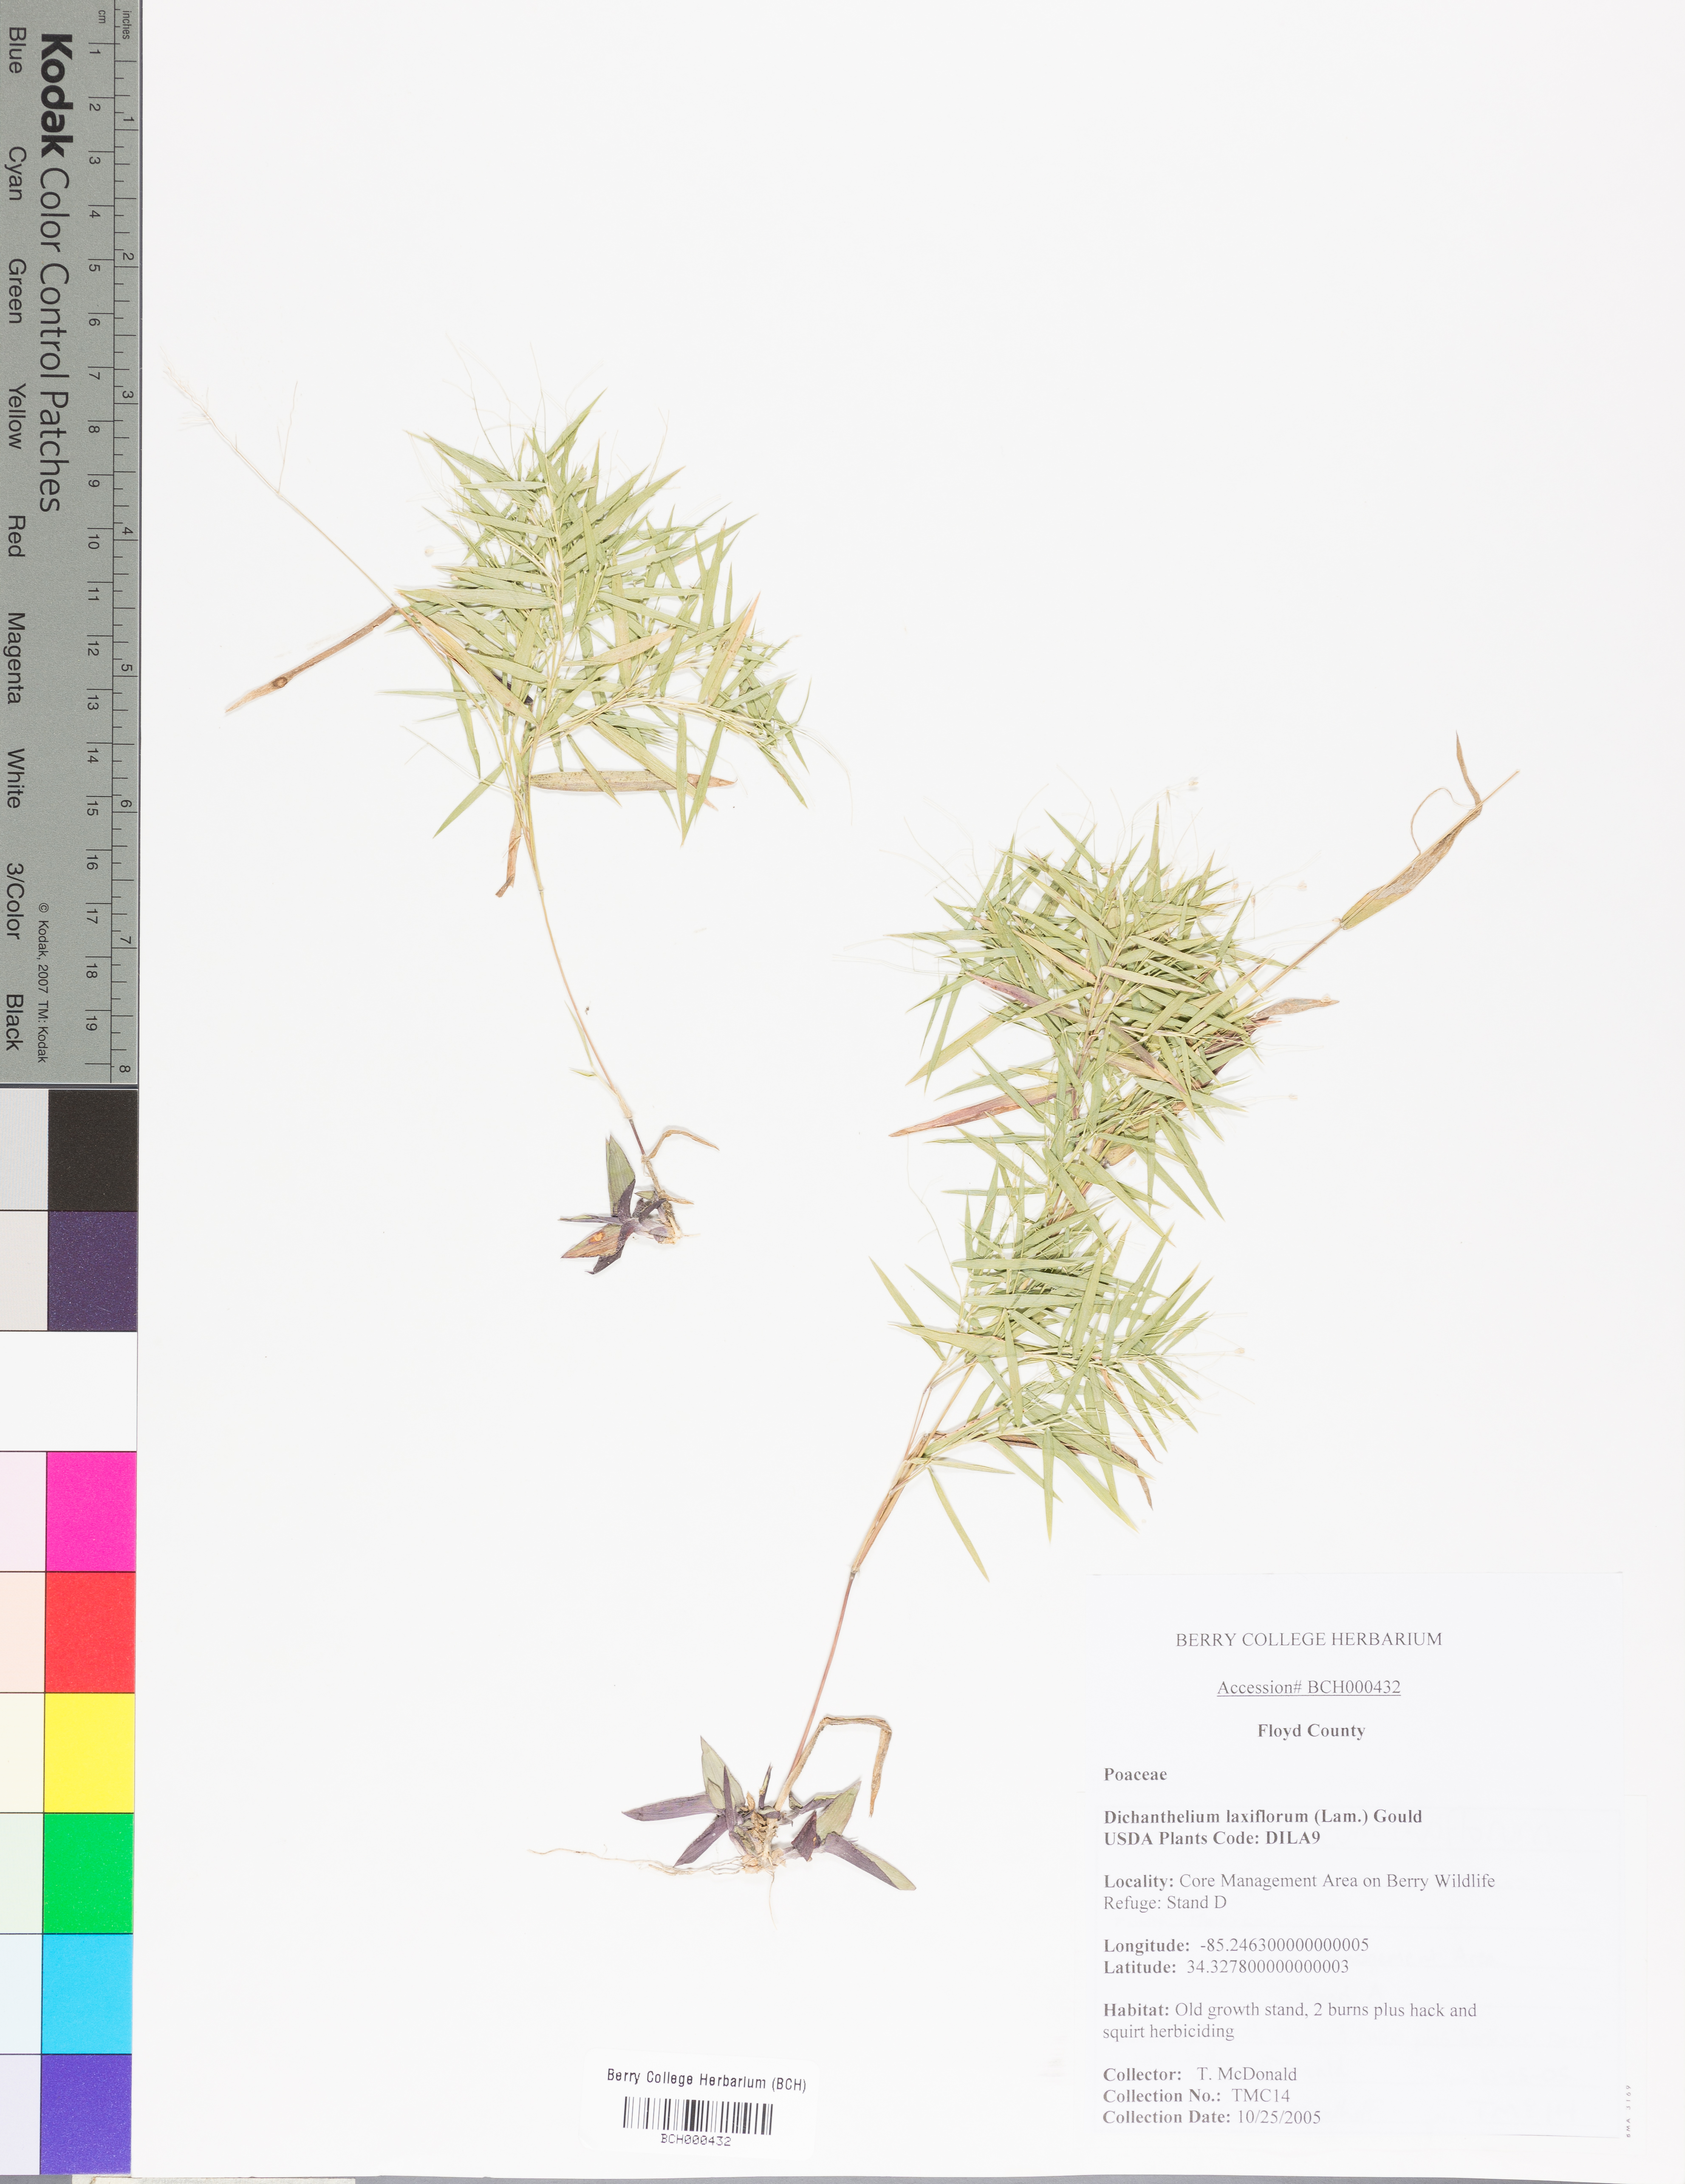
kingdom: Plantae
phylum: Tracheophyta
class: Liliopsida
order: Poales
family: Poaceae
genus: Dichanthelium
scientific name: Dichanthelium laxiflorum
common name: Soft-tuft panic grass
